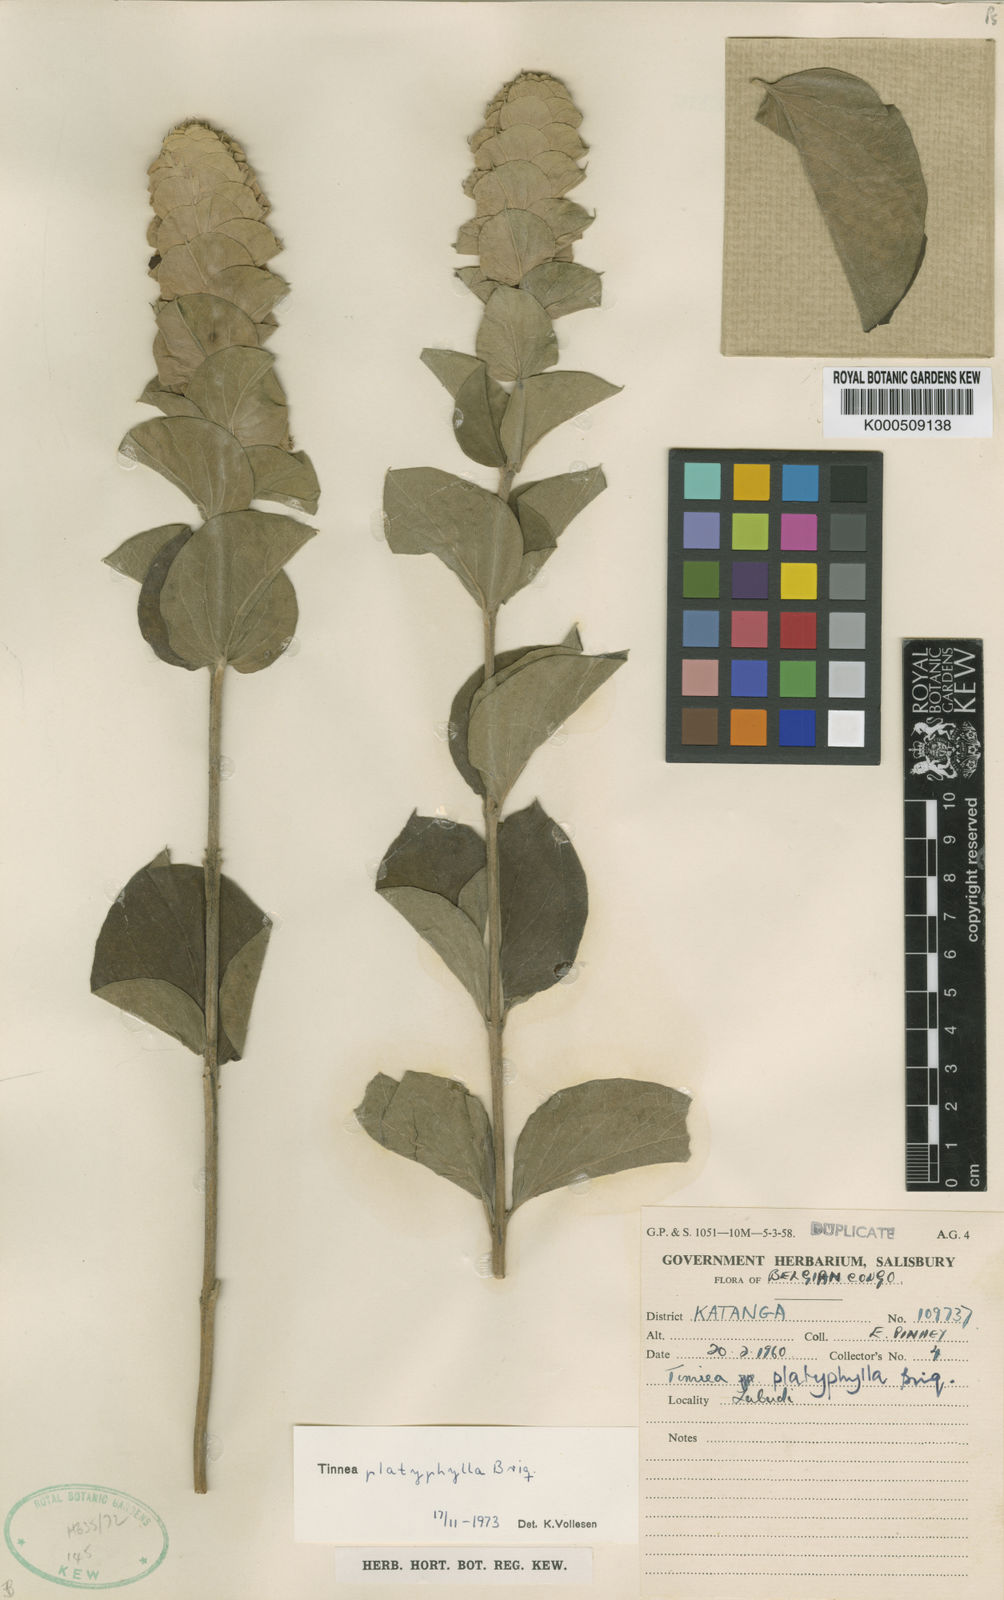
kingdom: Plantae
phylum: Tracheophyta
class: Magnoliopsida
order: Lamiales
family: Lamiaceae
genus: Tinnea
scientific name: Tinnea platyphylla
